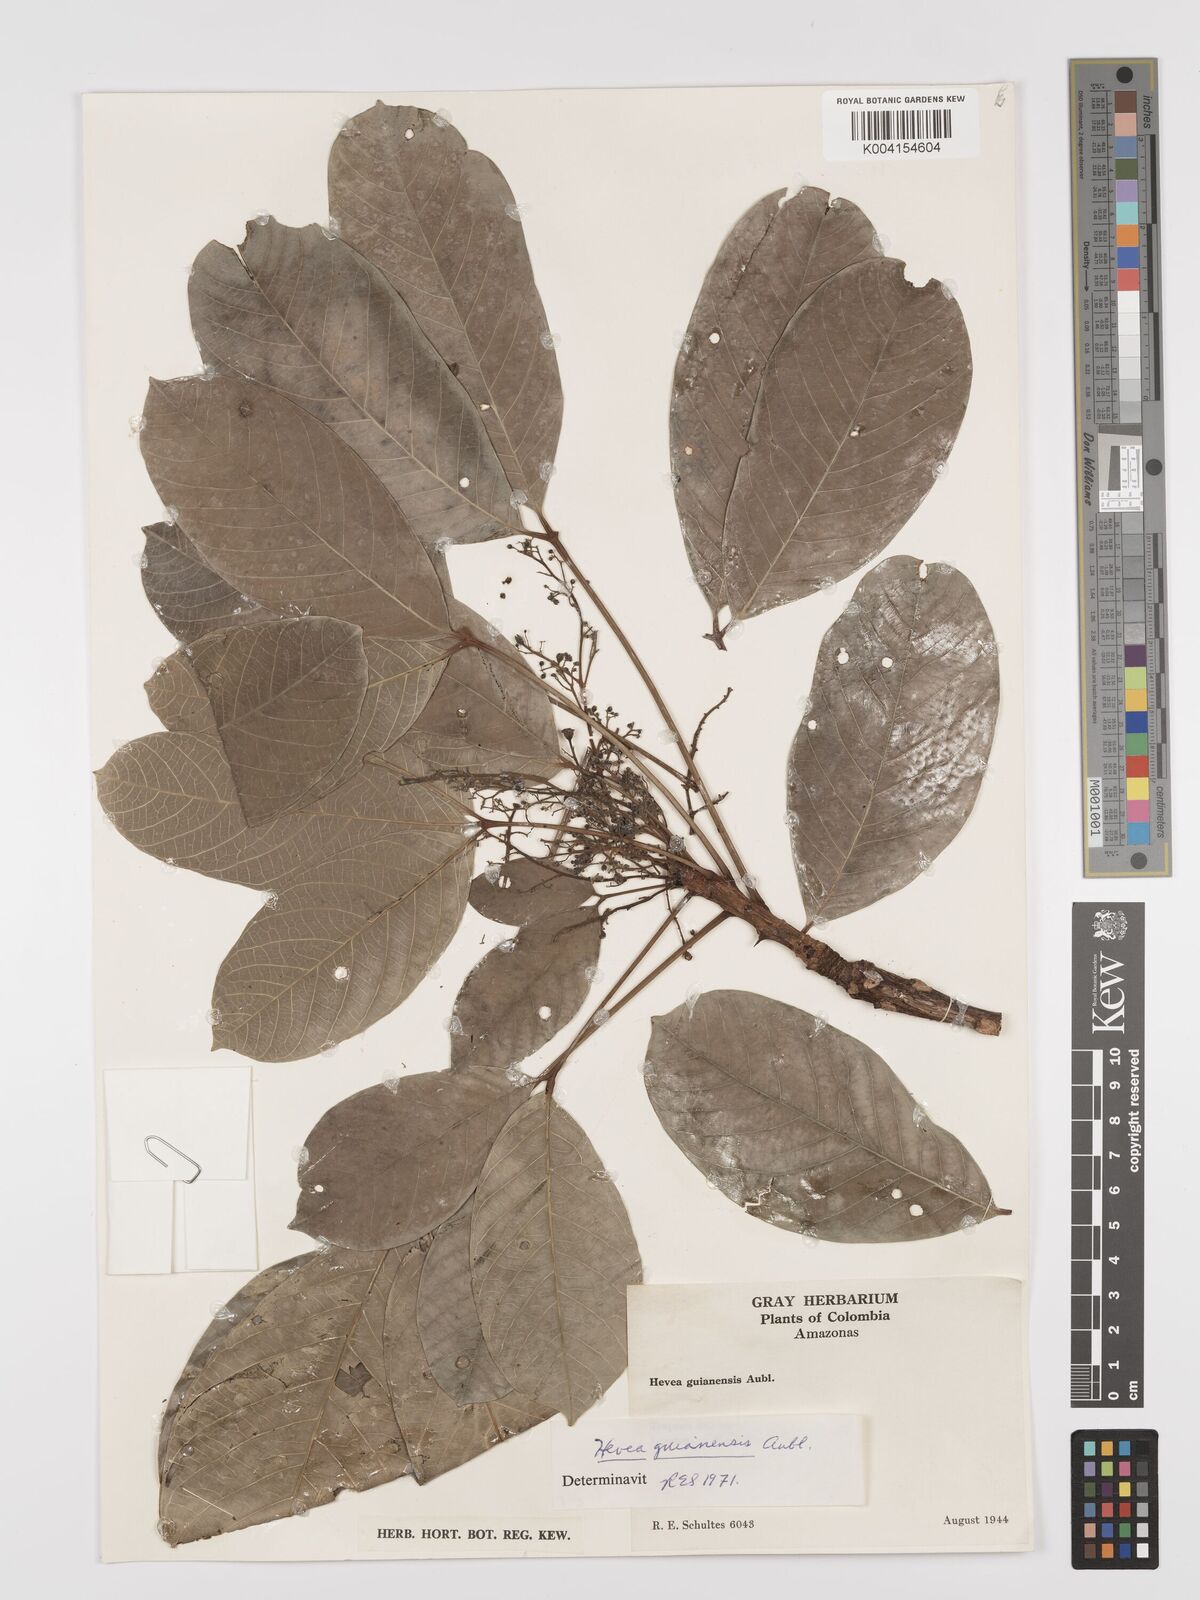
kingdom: Plantae
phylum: Tracheophyta
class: Magnoliopsida
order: Malpighiales
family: Euphorbiaceae
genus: Hevea
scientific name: Hevea guianensis
